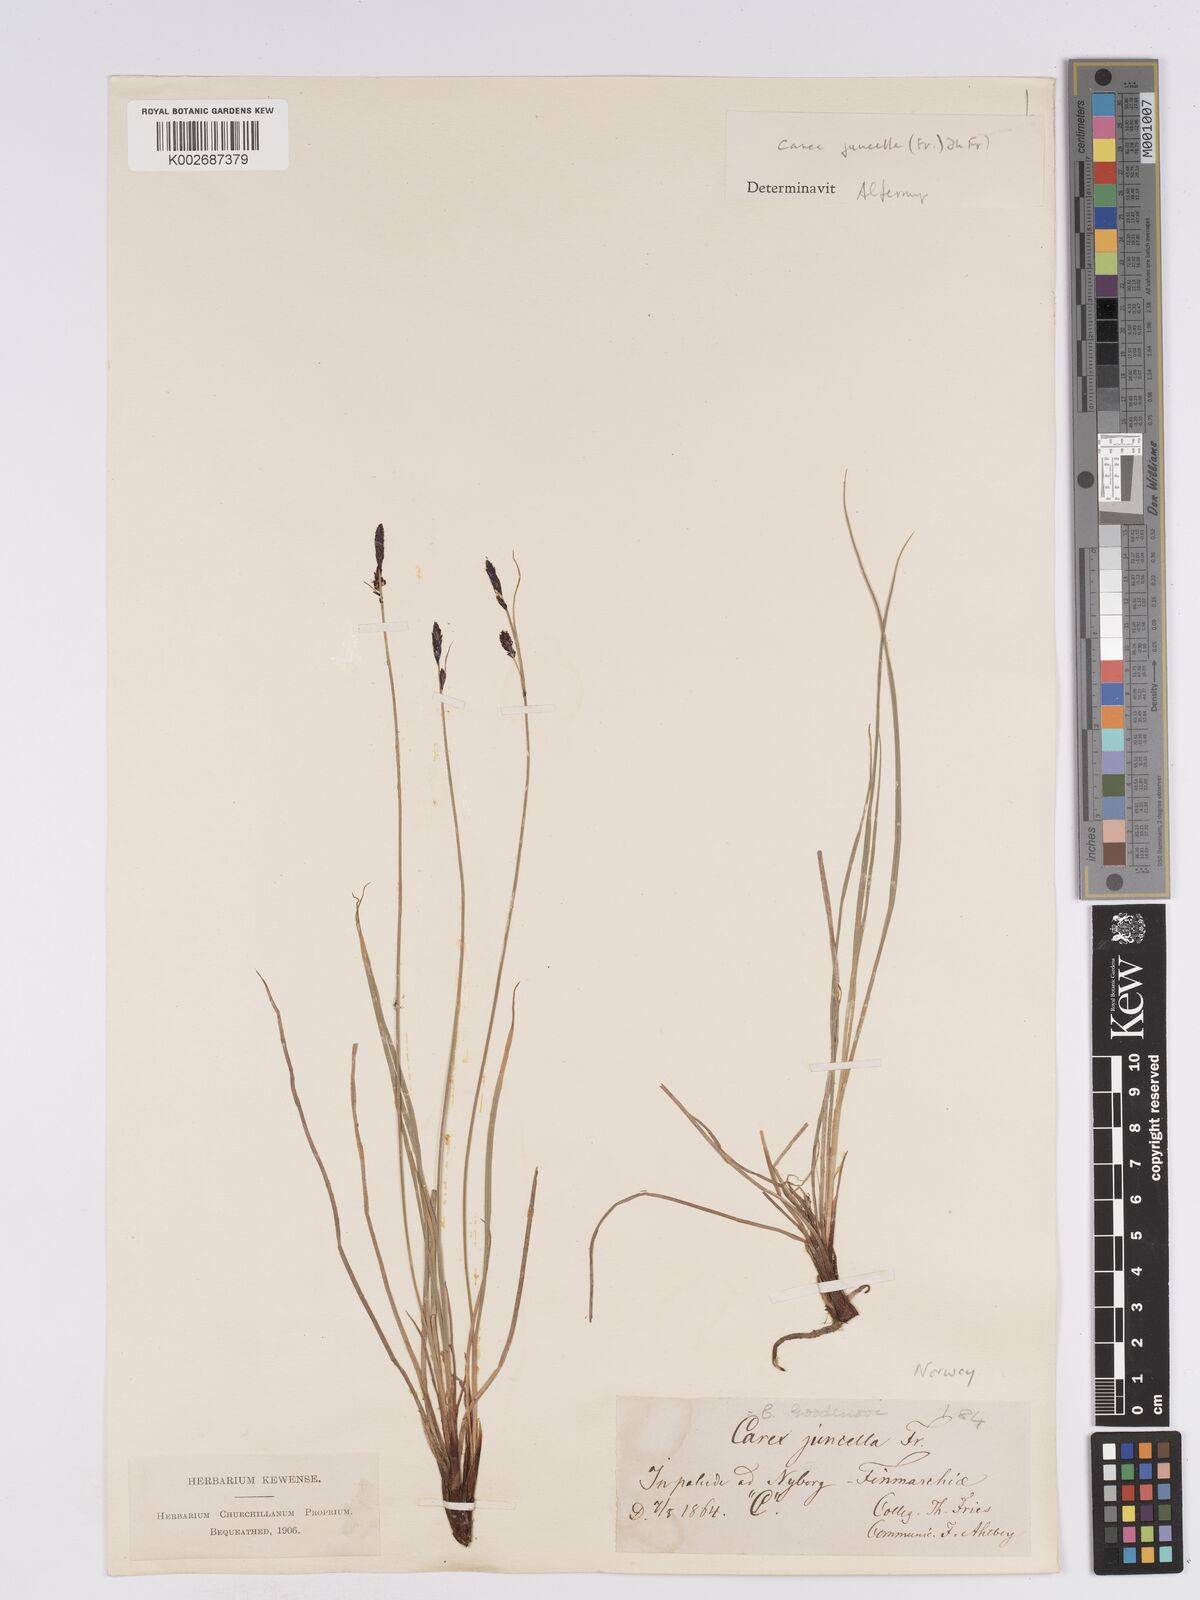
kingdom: Plantae
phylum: Tracheophyta
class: Liliopsida
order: Poales
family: Cyperaceae
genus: Carex
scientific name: Carex nigra
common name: Common sedge
